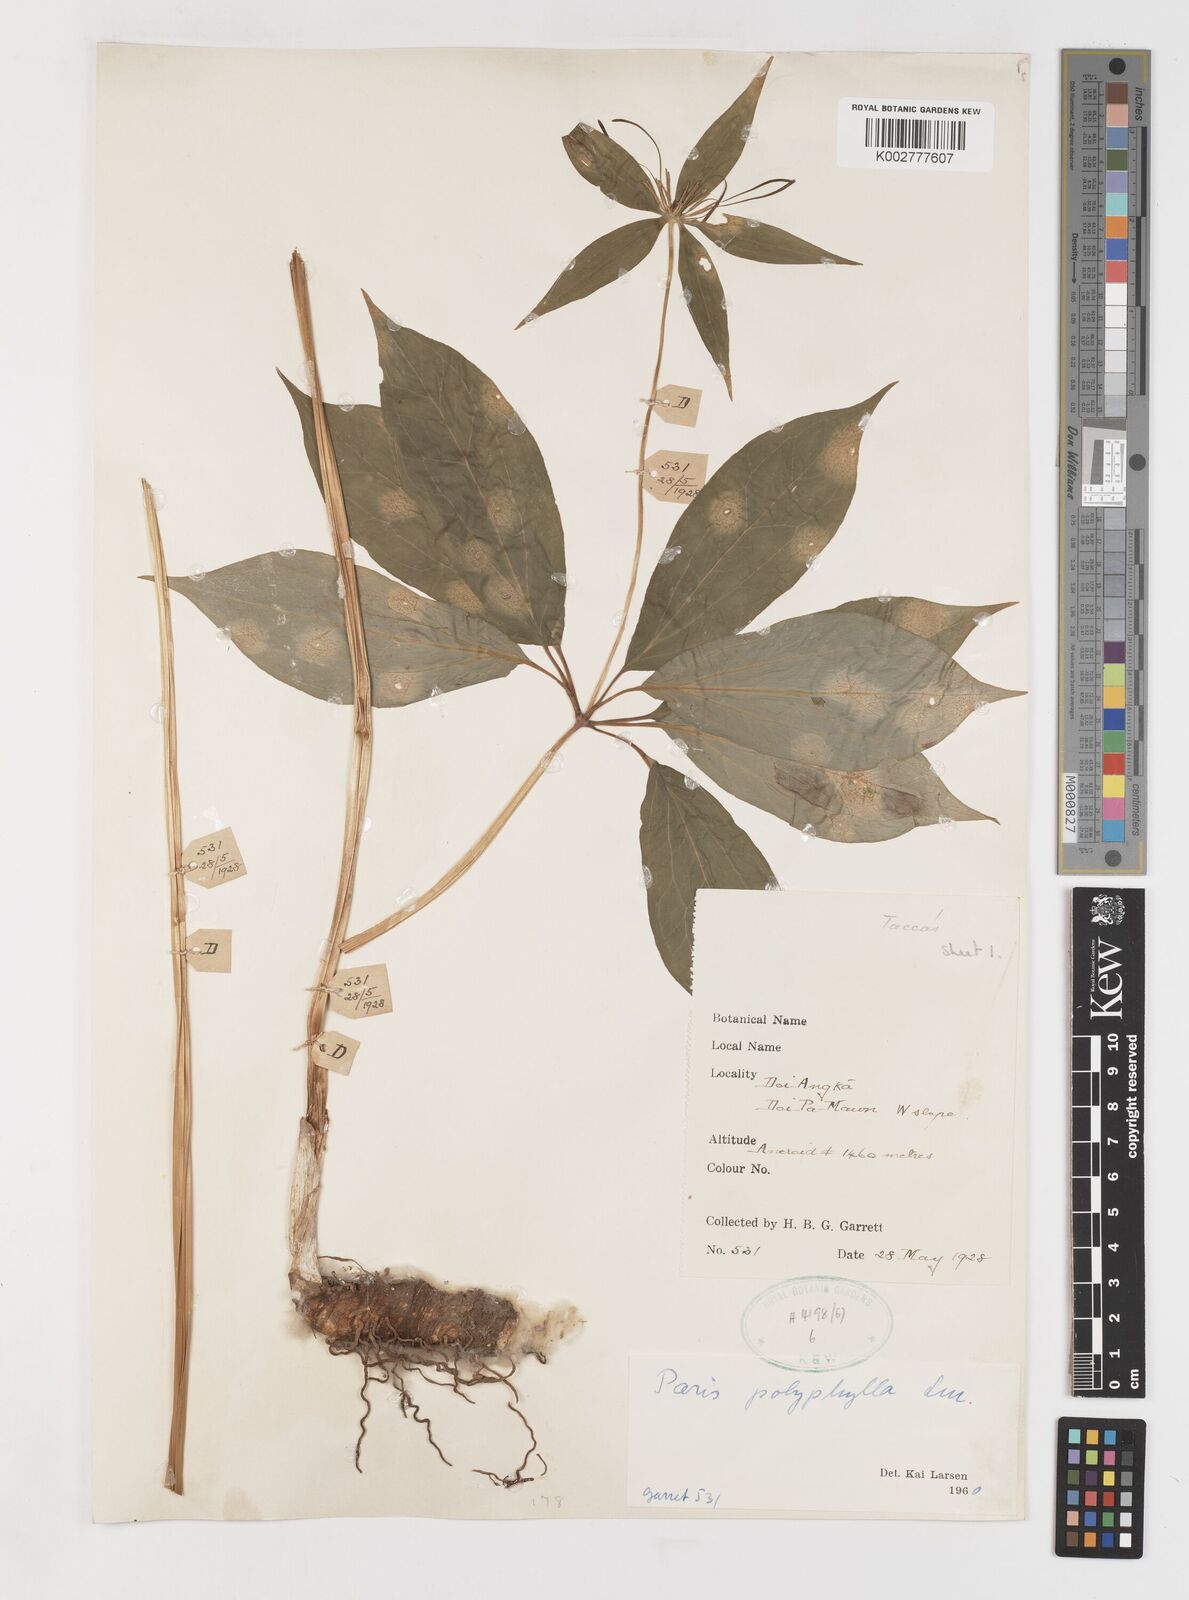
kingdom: Plantae
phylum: Tracheophyta
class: Liliopsida
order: Liliales
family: Melanthiaceae
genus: Paris
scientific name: Paris polyphylla
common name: Love apple
